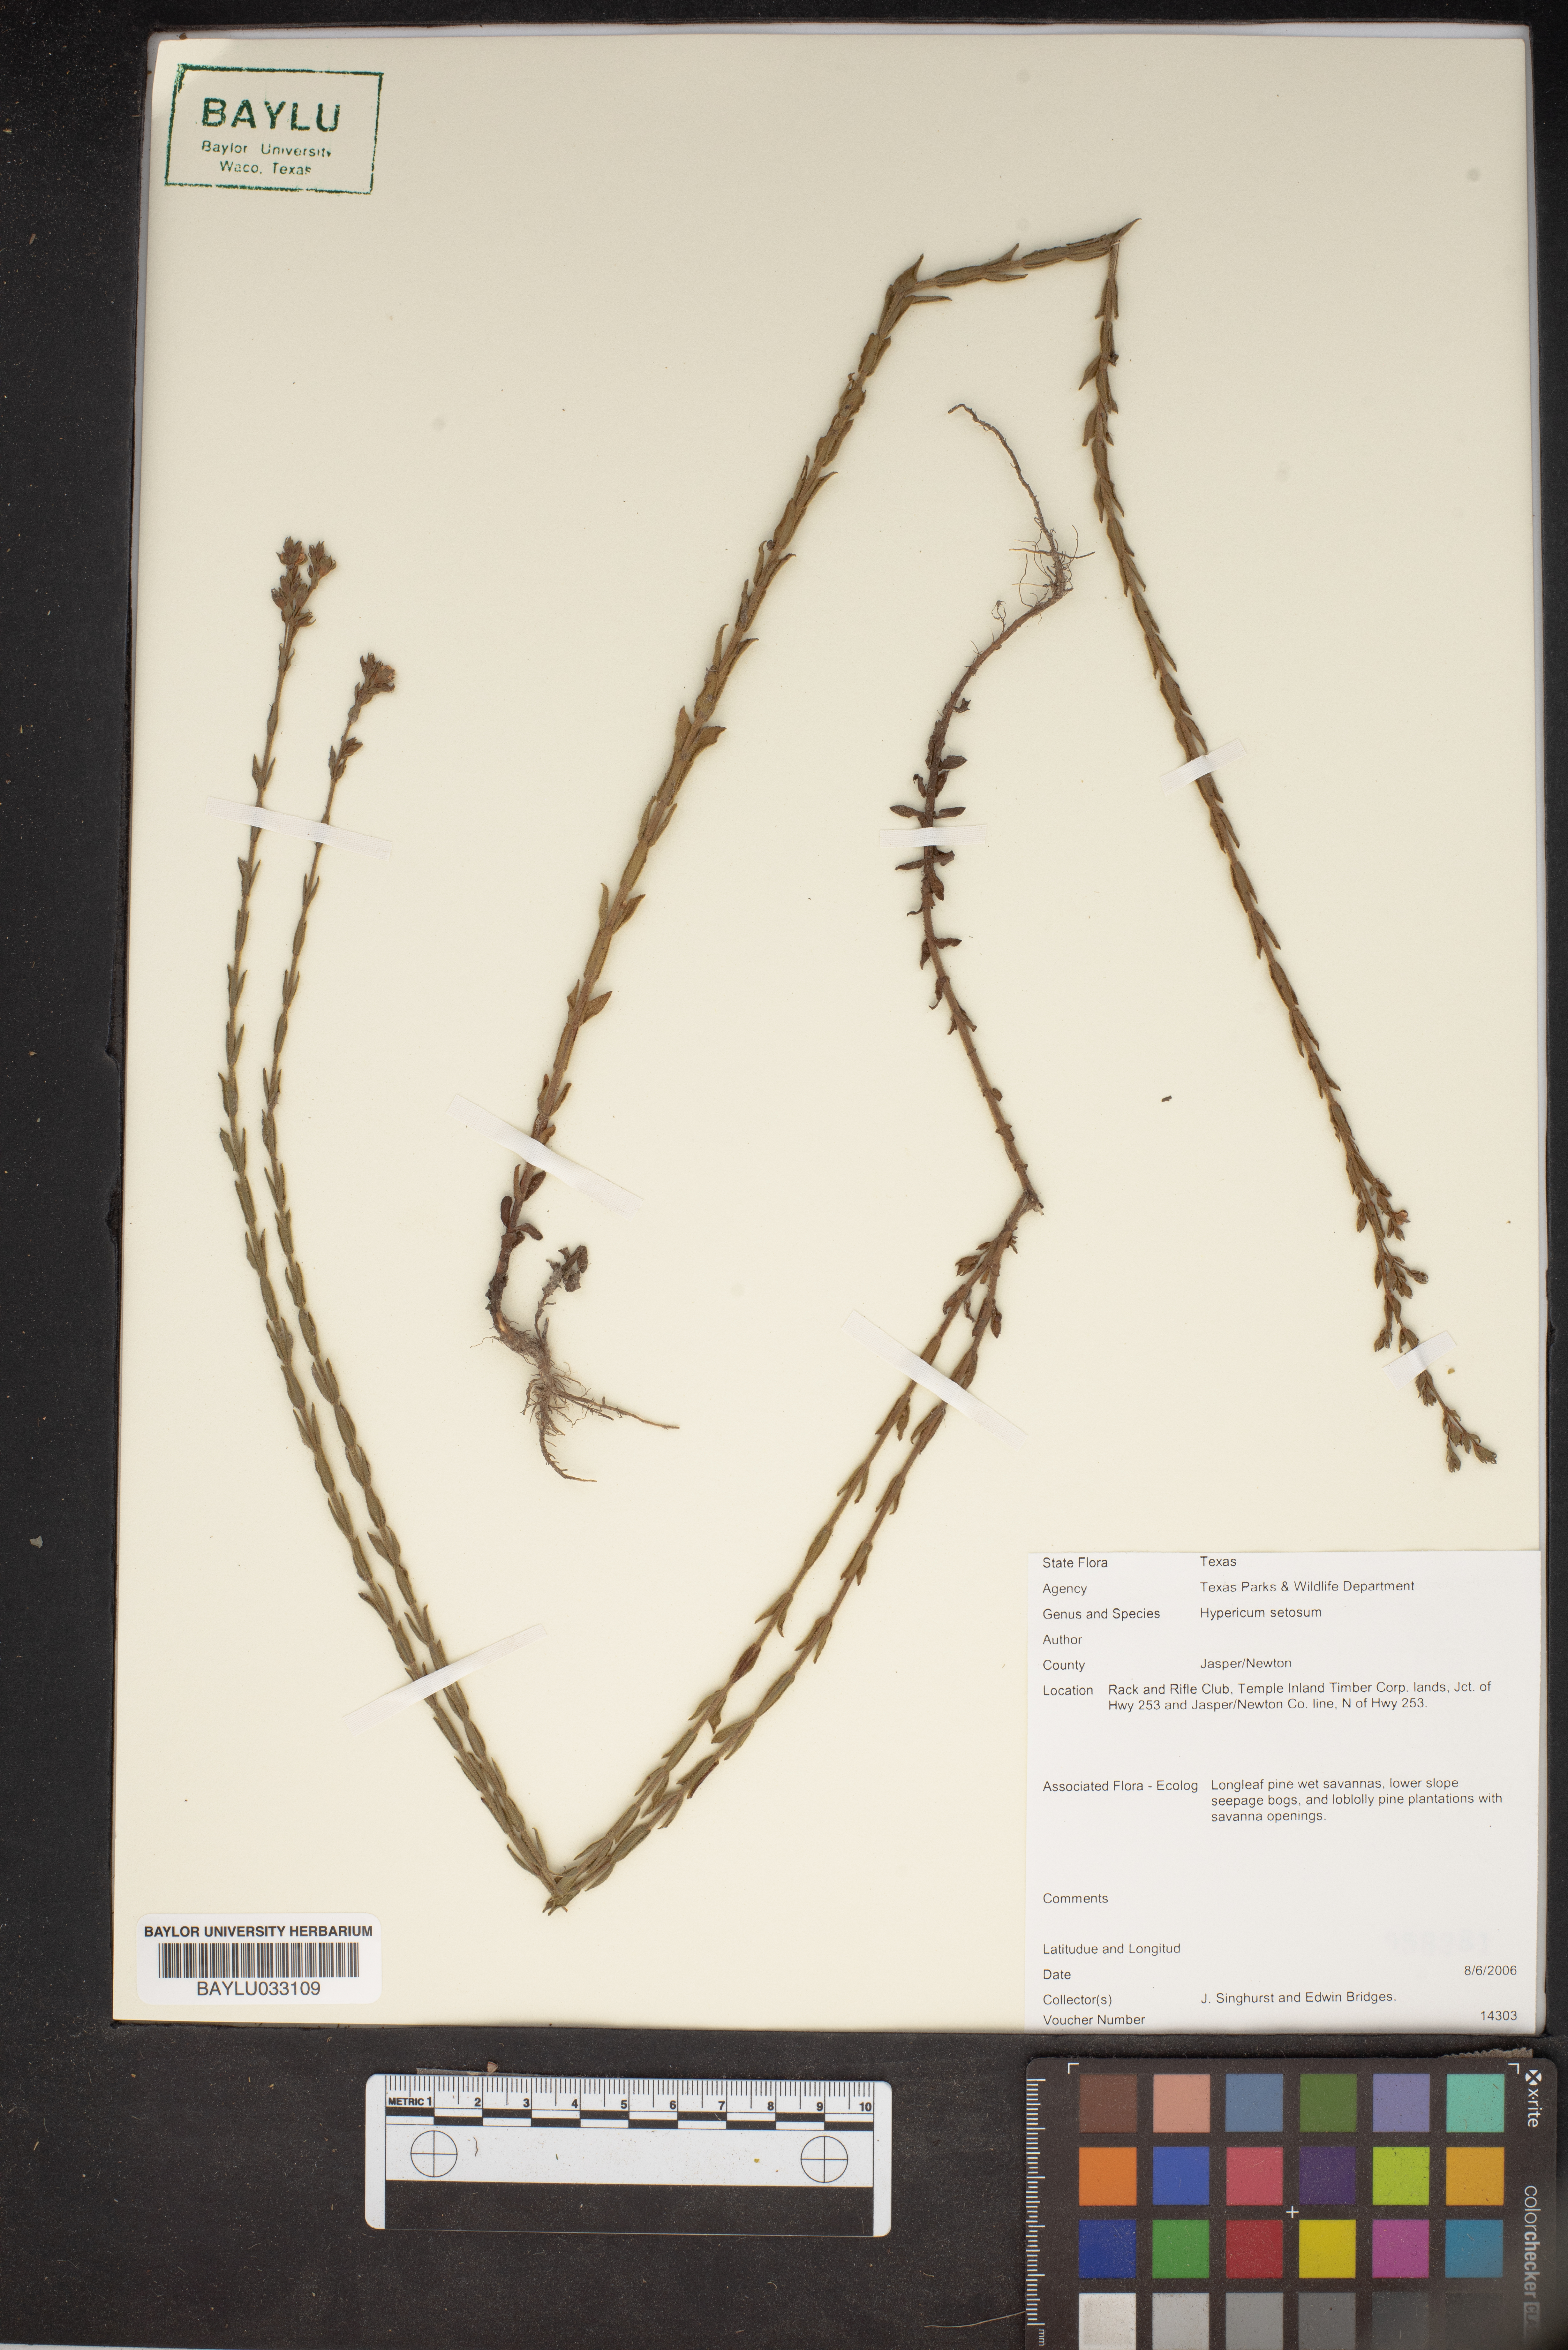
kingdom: Plantae
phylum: Tracheophyta
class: Magnoliopsida
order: Malpighiales
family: Hypericaceae
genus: Hypericum
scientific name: Hypericum setosum
